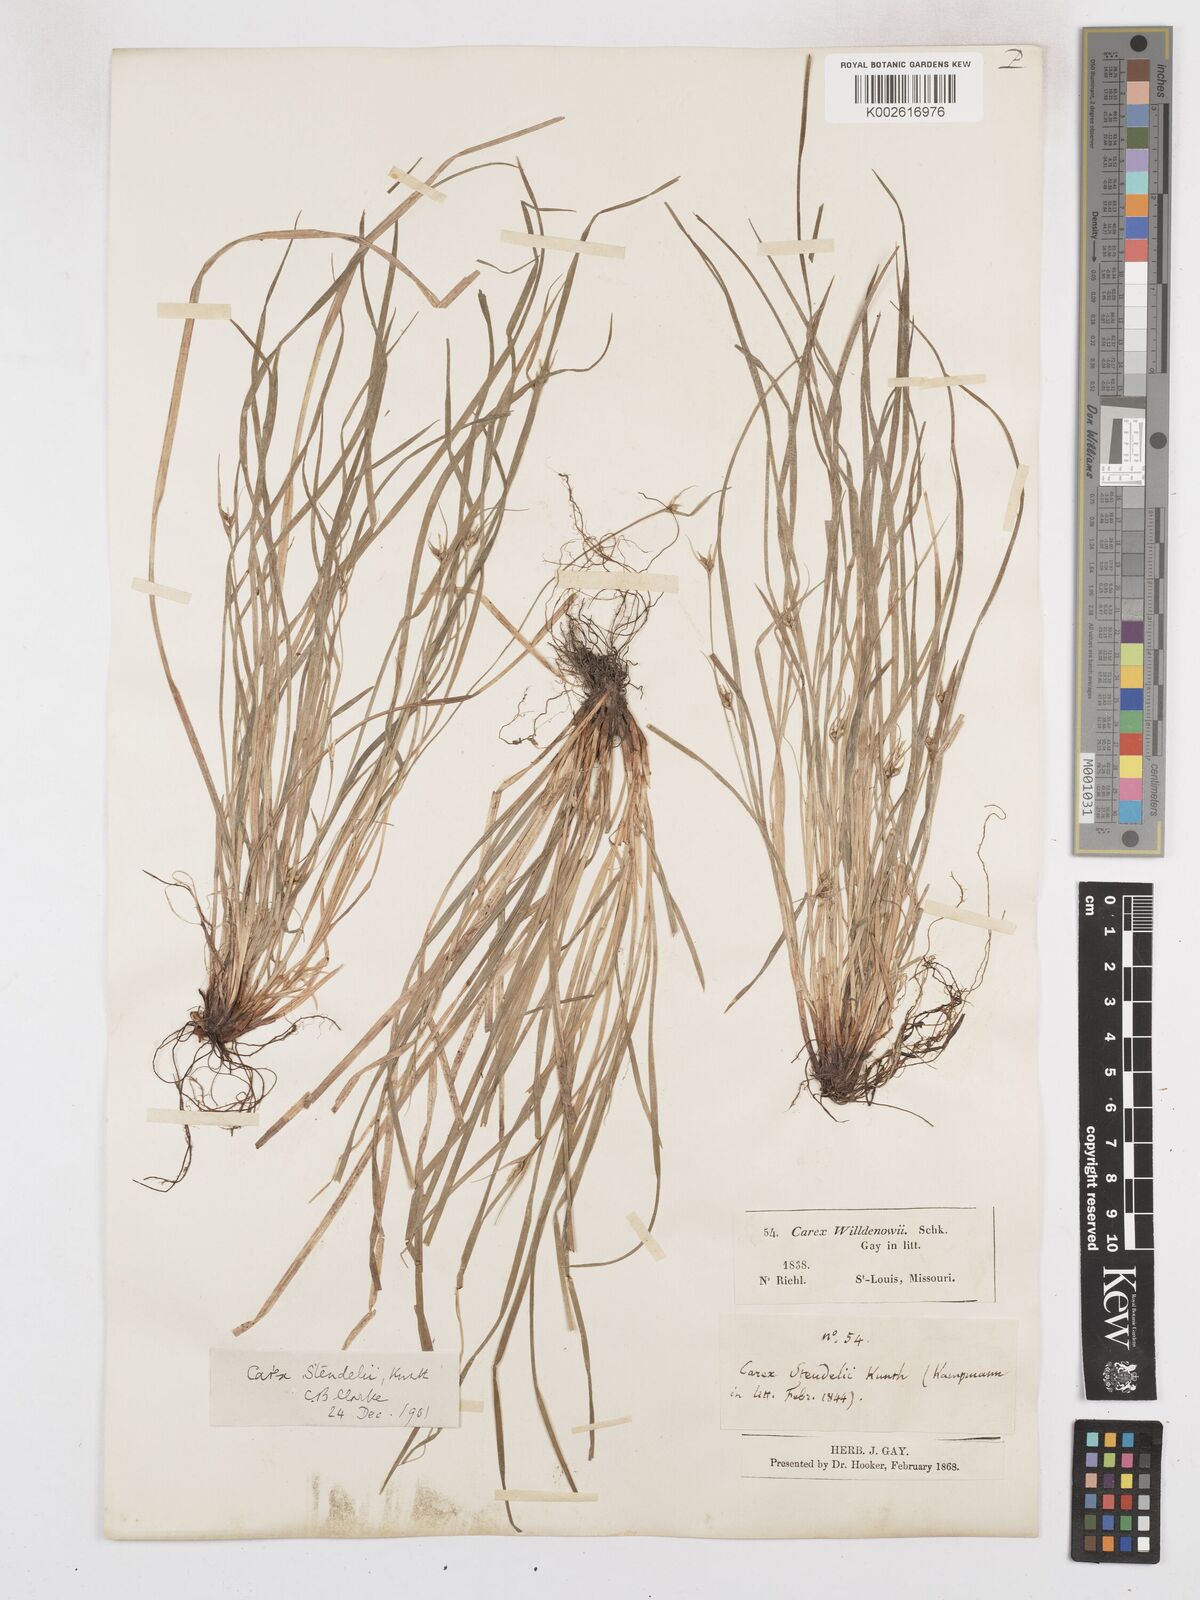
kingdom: Plantae
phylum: Tracheophyta
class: Liliopsida
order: Poales
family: Cyperaceae
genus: Carex
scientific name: Carex jamesii
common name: Grass sedge
